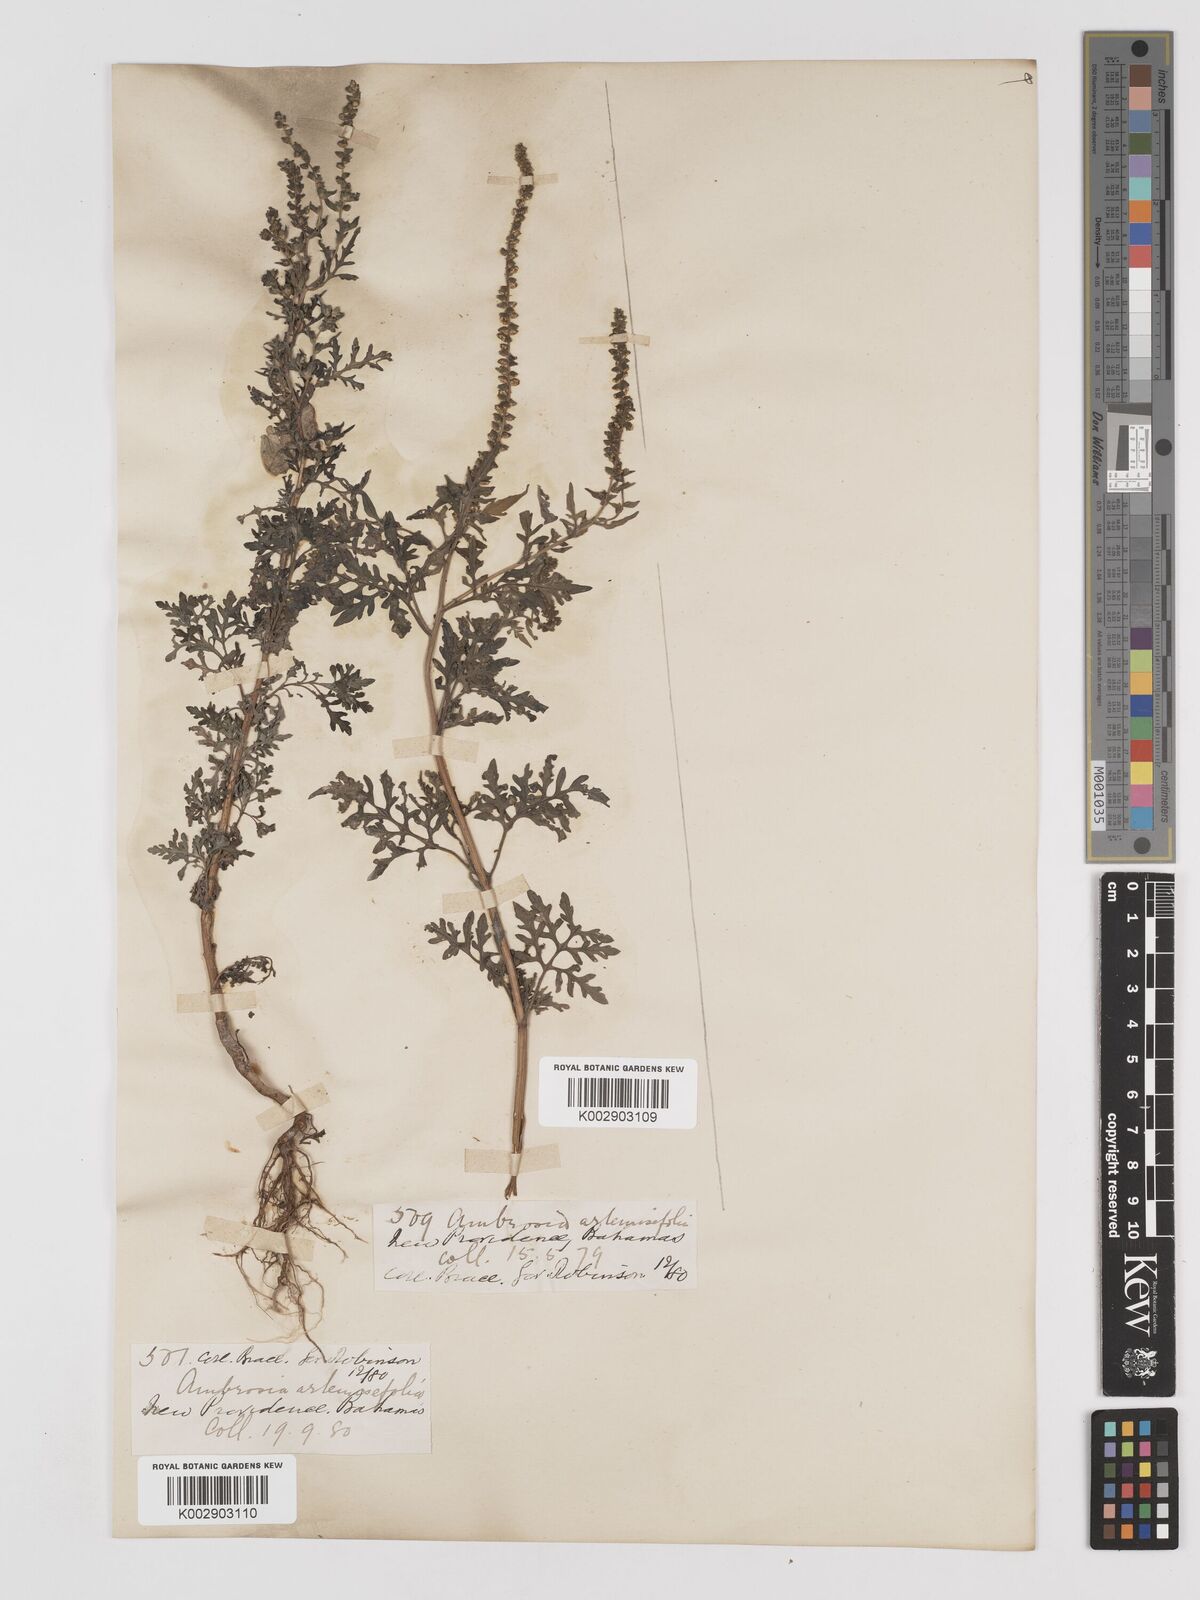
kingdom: Plantae
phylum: Tracheophyta
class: Magnoliopsida
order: Asterales
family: Asteraceae
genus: Ambrosia
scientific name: Ambrosia artemisiifolia
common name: Annual ragweed
